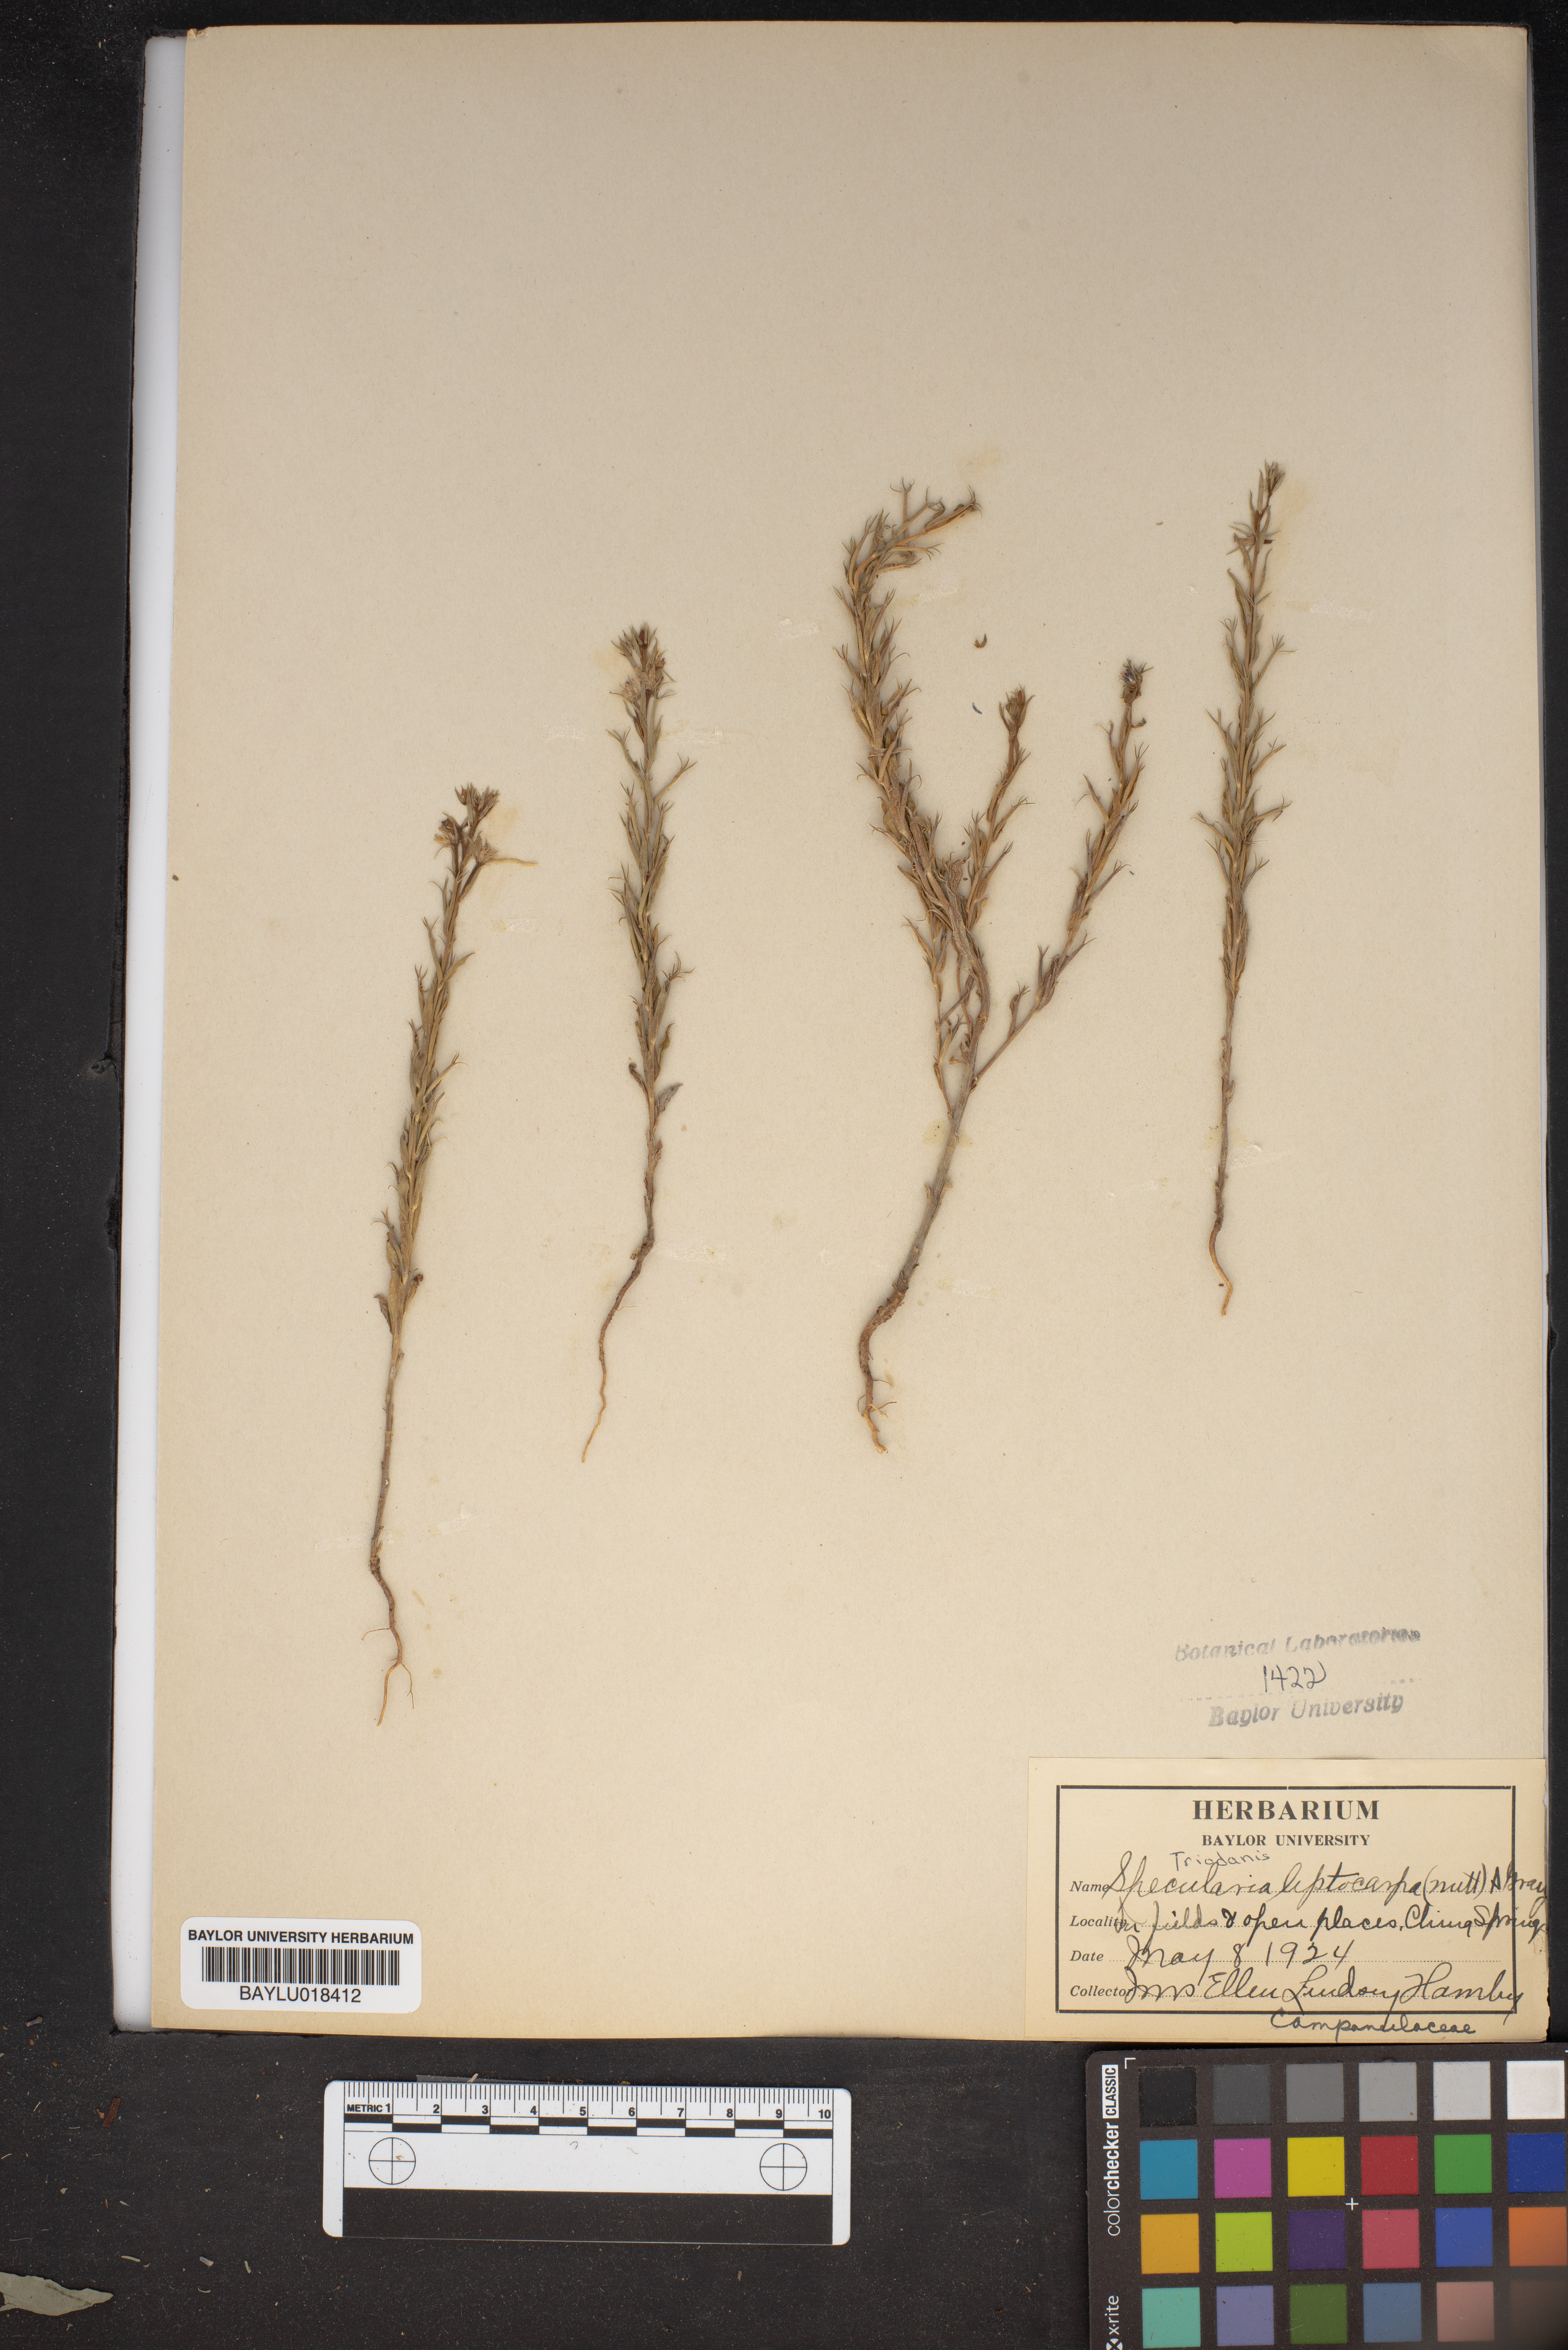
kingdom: Plantae
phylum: Tracheophyta
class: Magnoliopsida
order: Asterales
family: Campanulaceae
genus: Triodanis
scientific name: Triodanis leptocarpa
